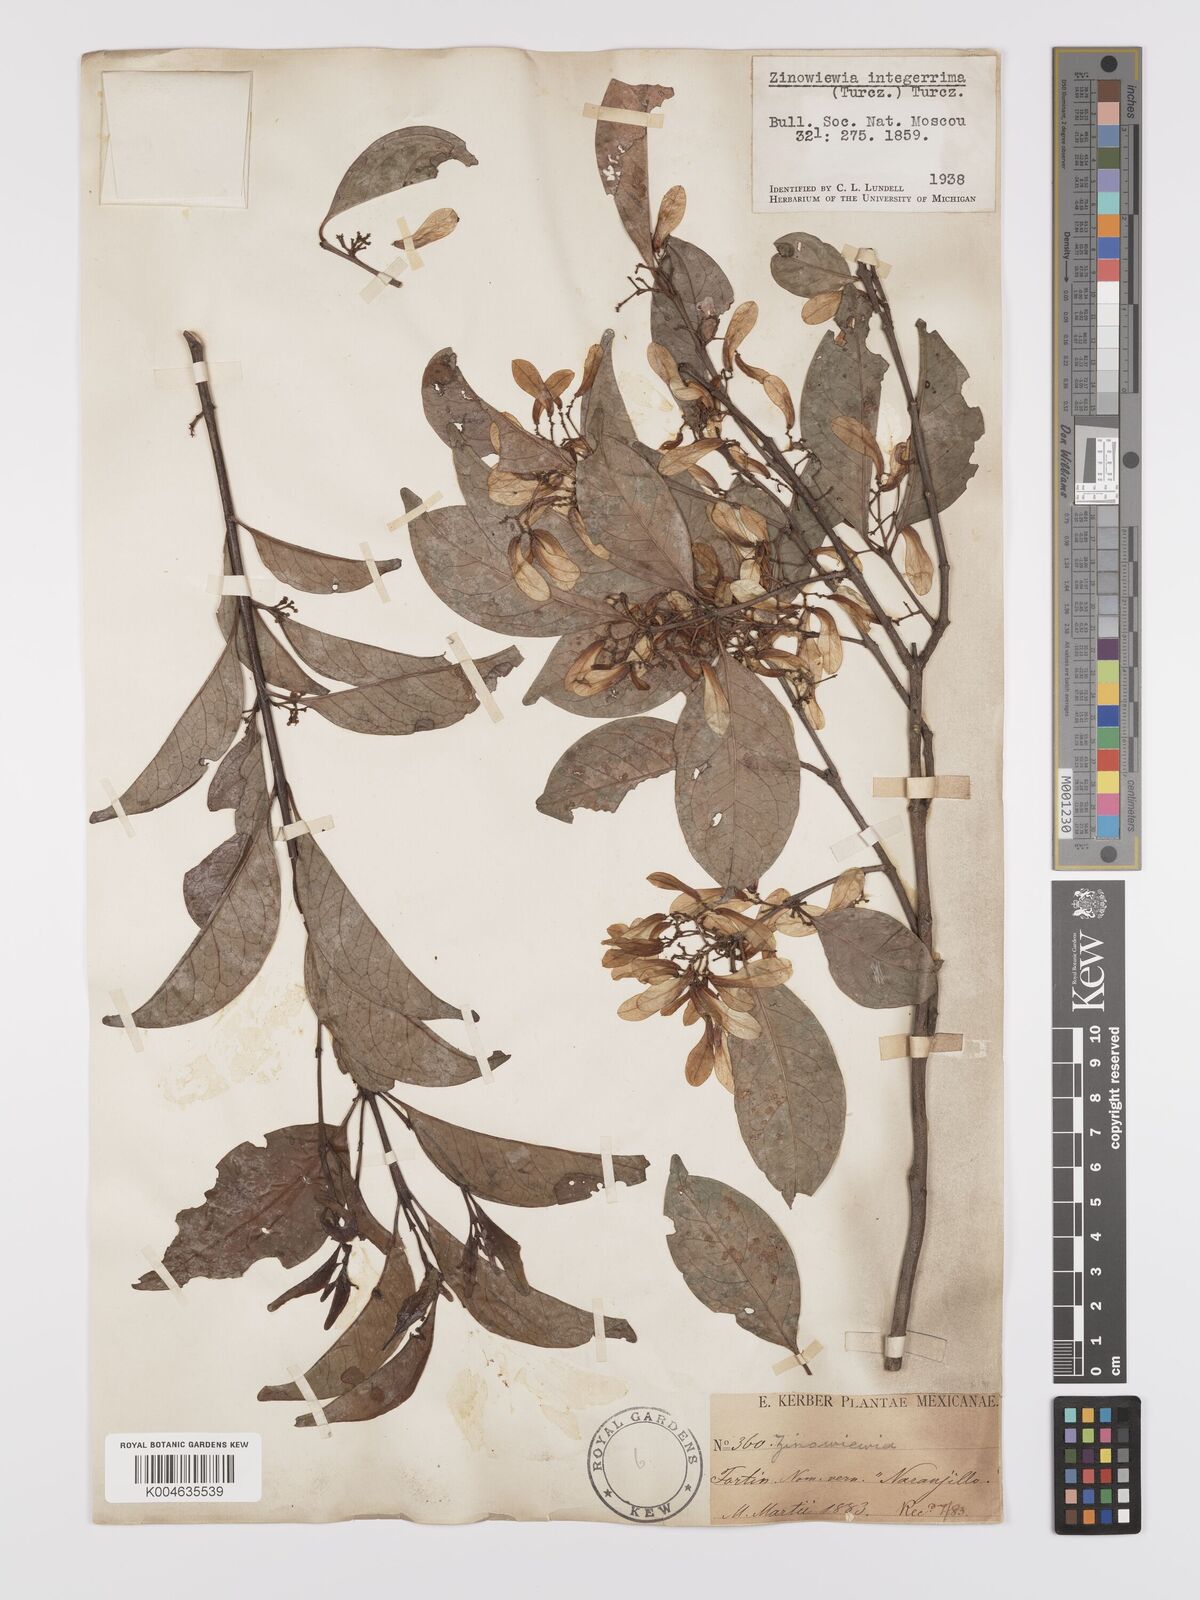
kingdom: Plantae
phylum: Tracheophyta
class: Magnoliopsida
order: Celastrales
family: Celastraceae
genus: Zinowiewia
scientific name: Zinowiewia integerrima
